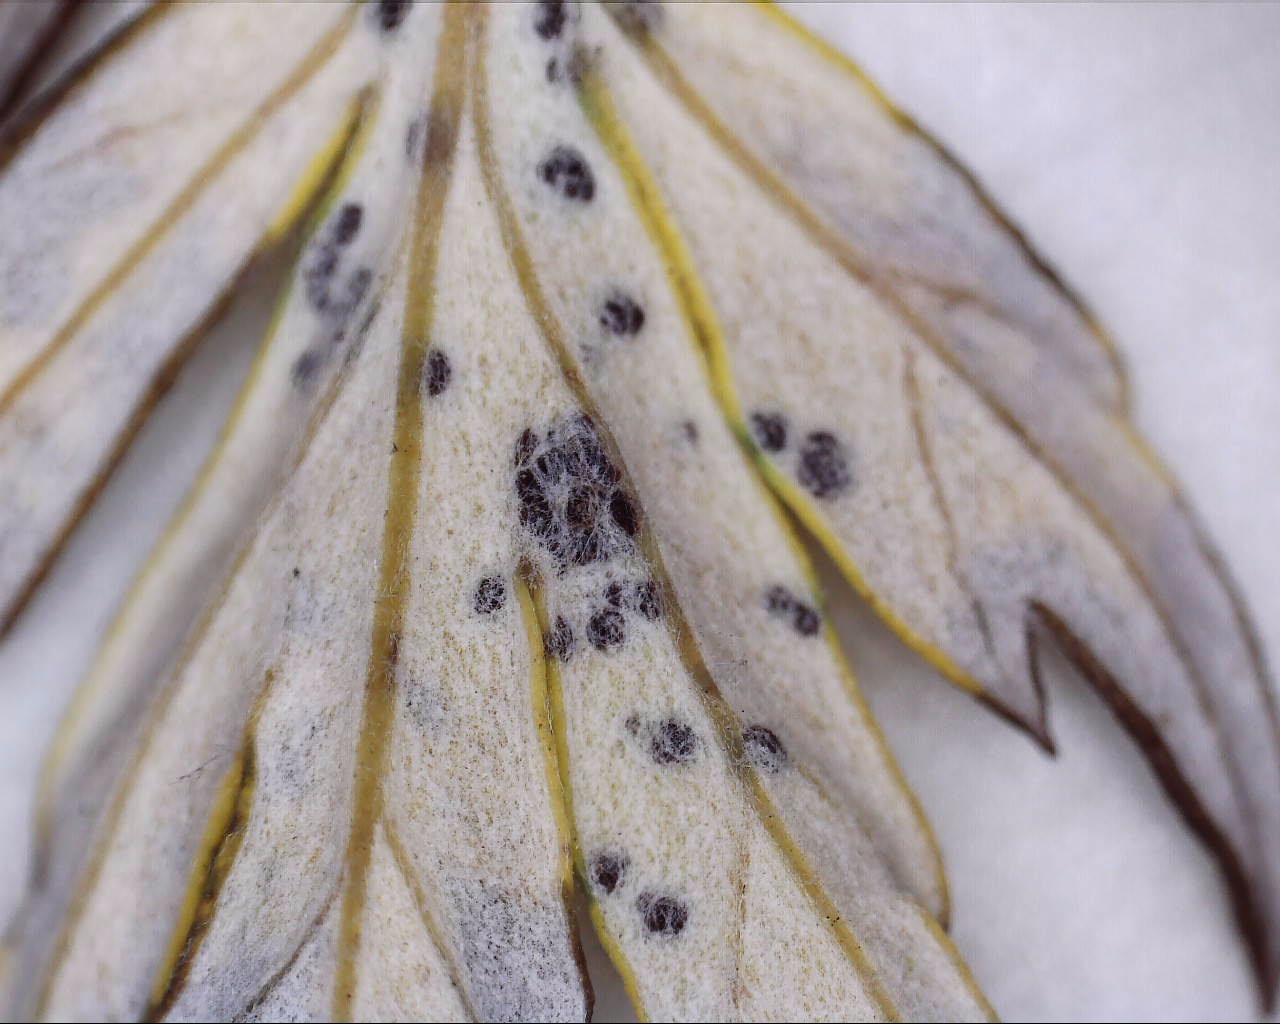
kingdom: Fungi
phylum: Basidiomycota
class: Pucciniomycetes
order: Pucciniales
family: Pucciniaceae
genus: Puccinia
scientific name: Puccinia tanaceti
